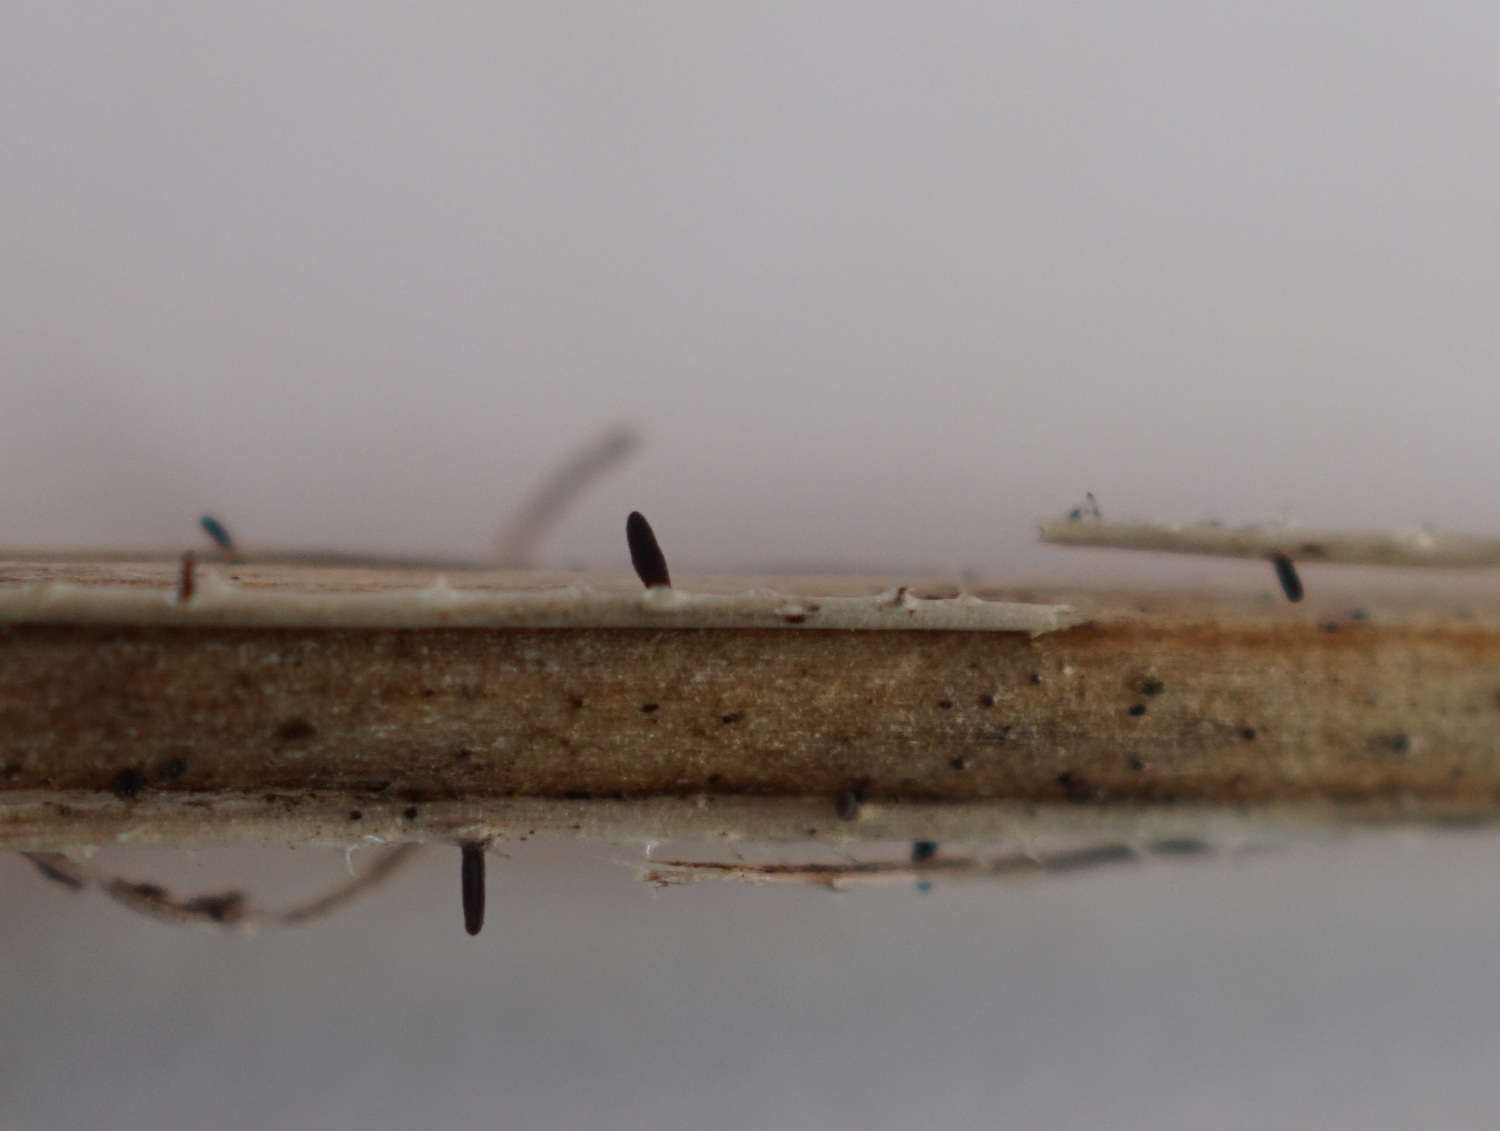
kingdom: Fungi
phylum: Ascomycota
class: Dothideomycetes
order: Acrospermales
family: Acrospermaceae
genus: Acrospermum
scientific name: Acrospermum pallidulum
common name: snerre-stængeltunge
